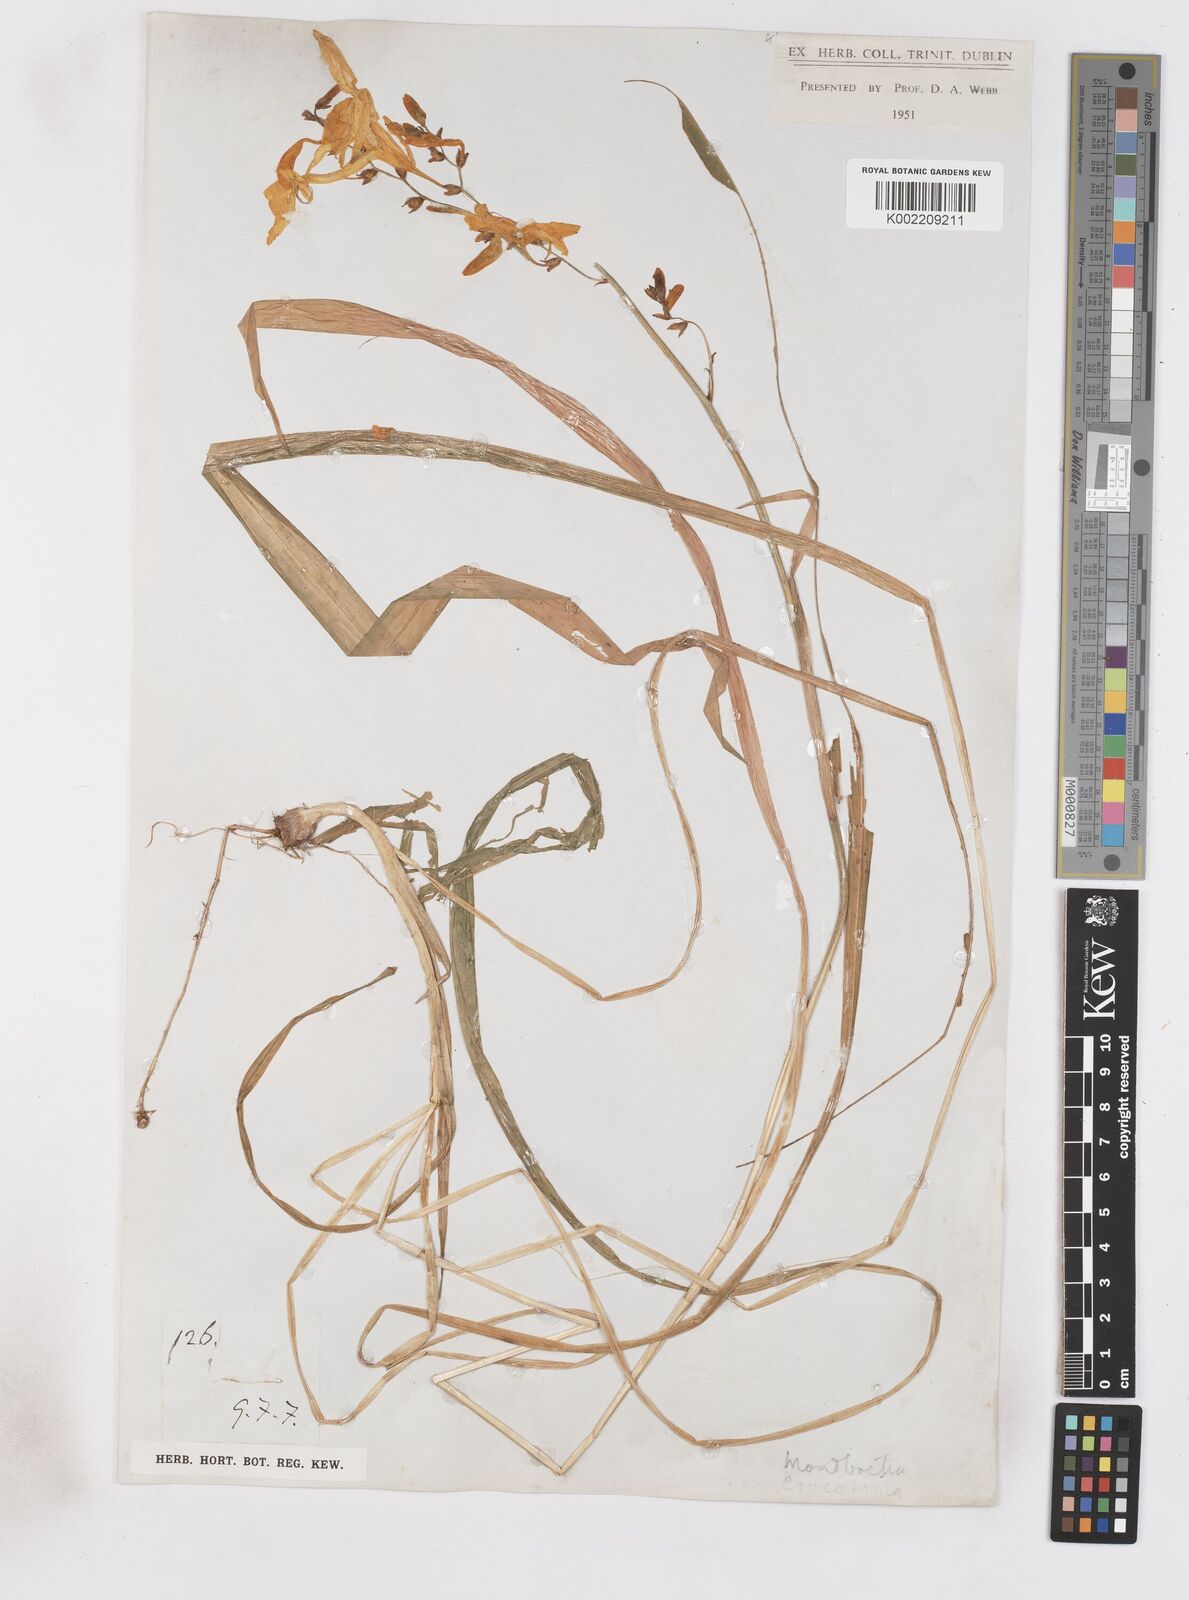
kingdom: Plantae
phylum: Tracheophyta
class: Liliopsida
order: Asparagales
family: Iridaceae
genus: Crocosmia
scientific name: Crocosmia aurea
